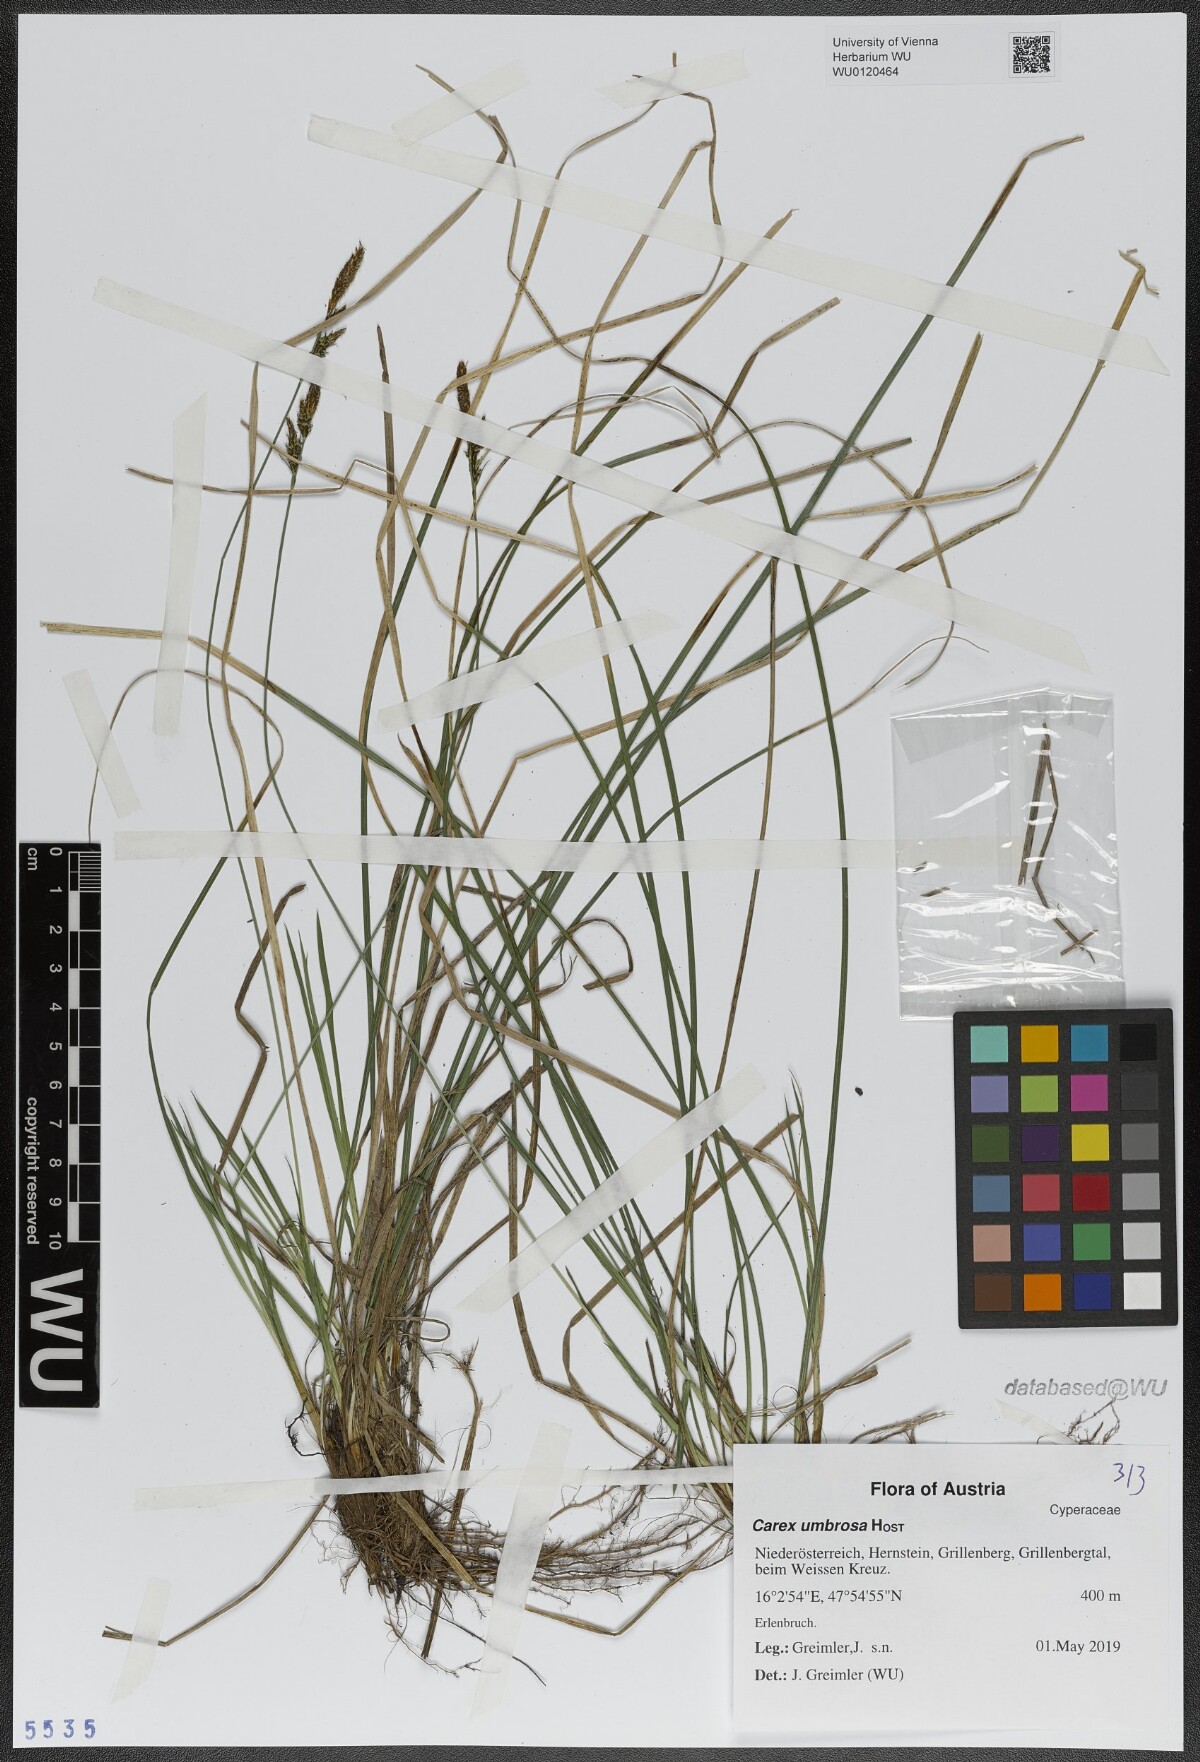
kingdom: Plantae
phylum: Tracheophyta
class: Liliopsida
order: Poales
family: Cyperaceae
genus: Carex
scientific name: Carex umbrosa
